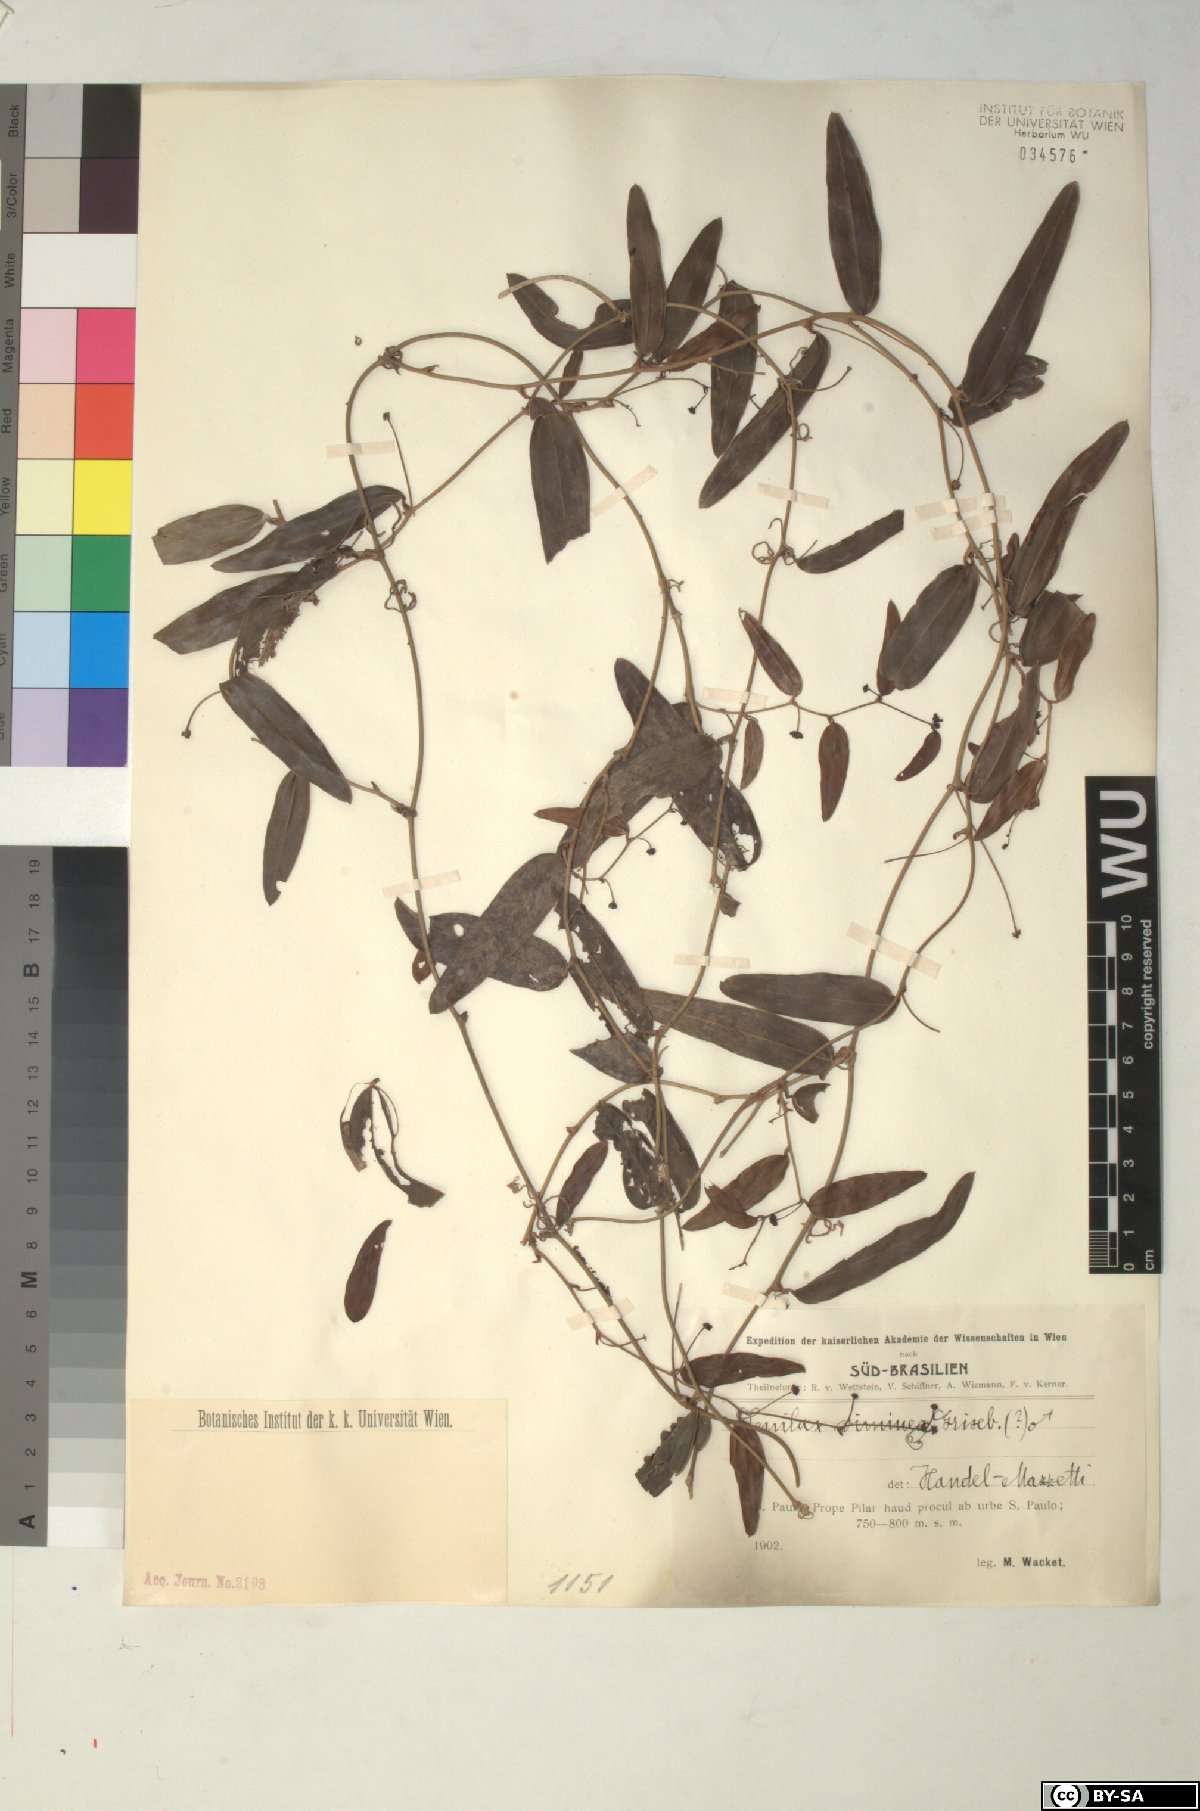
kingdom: Plantae
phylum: Tracheophyta
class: Liliopsida
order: Liliales
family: Smilacaceae
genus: Smilax
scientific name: Smilax campestris
